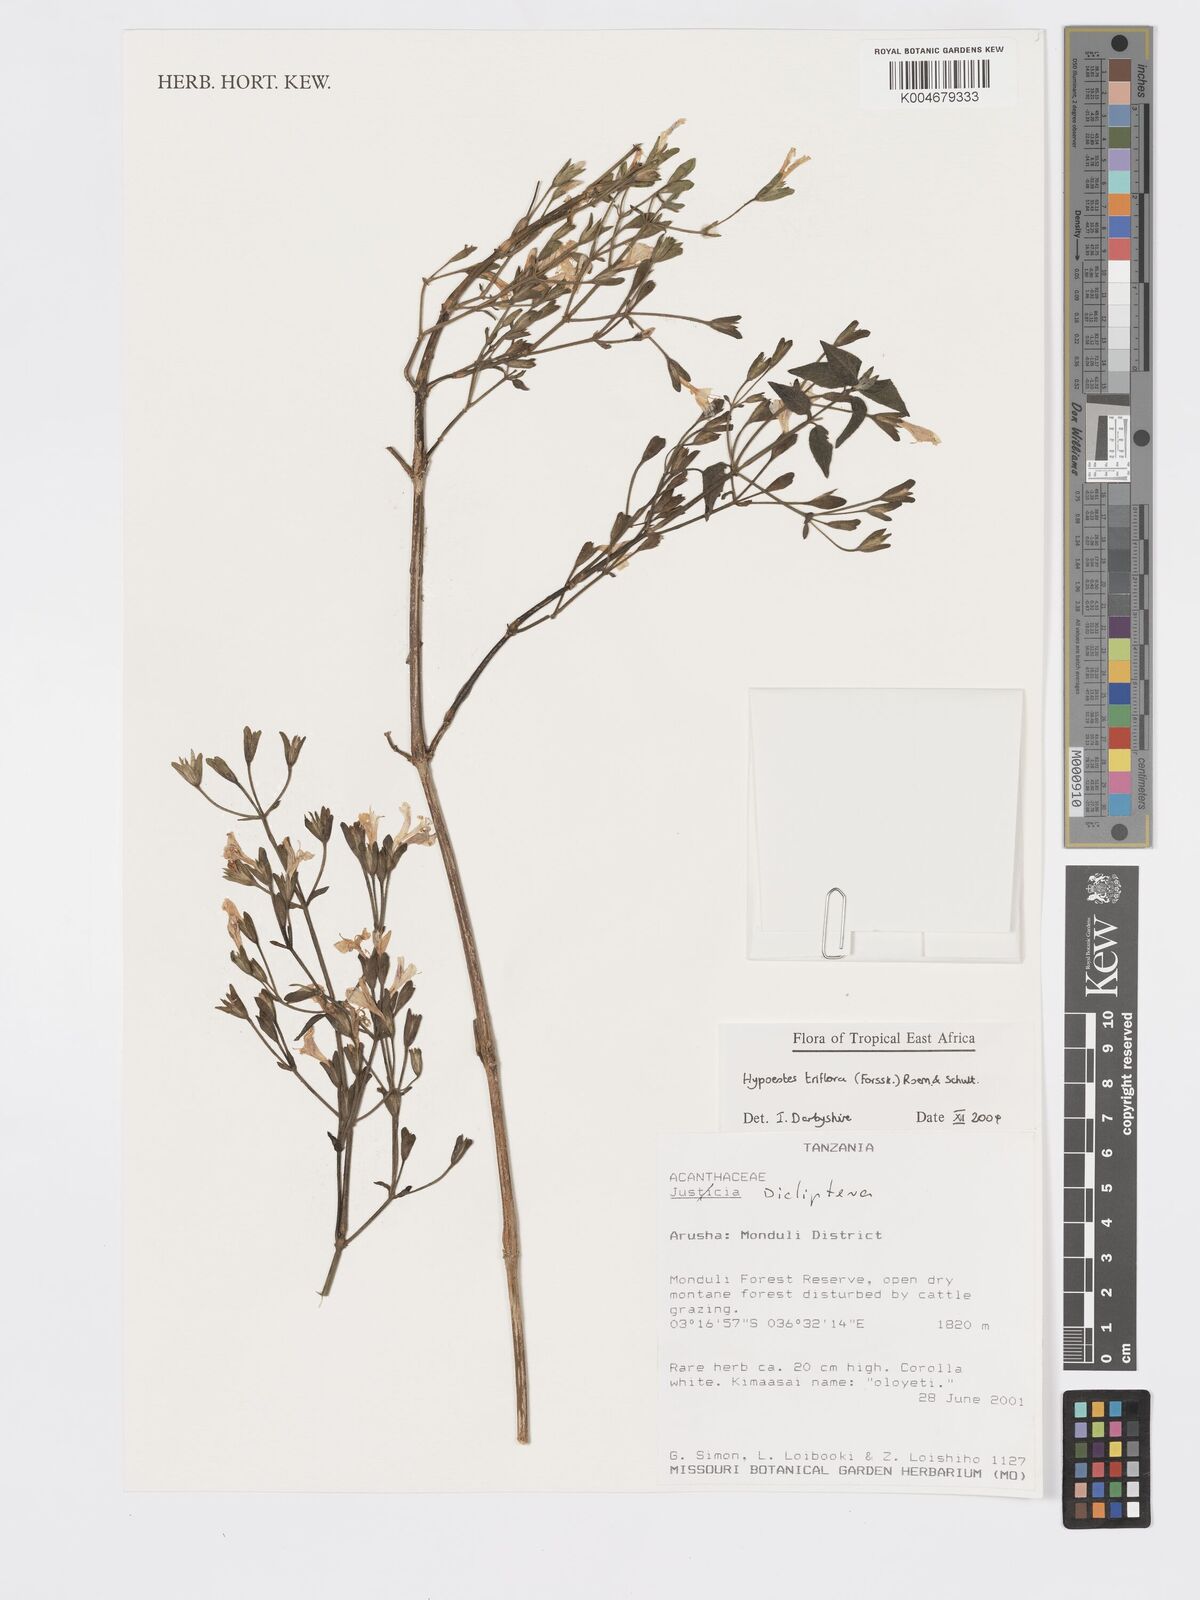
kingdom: Plantae
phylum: Tracheophyta
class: Magnoliopsida
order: Lamiales
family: Acanthaceae
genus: Hypoestes
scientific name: Hypoestes triflora
